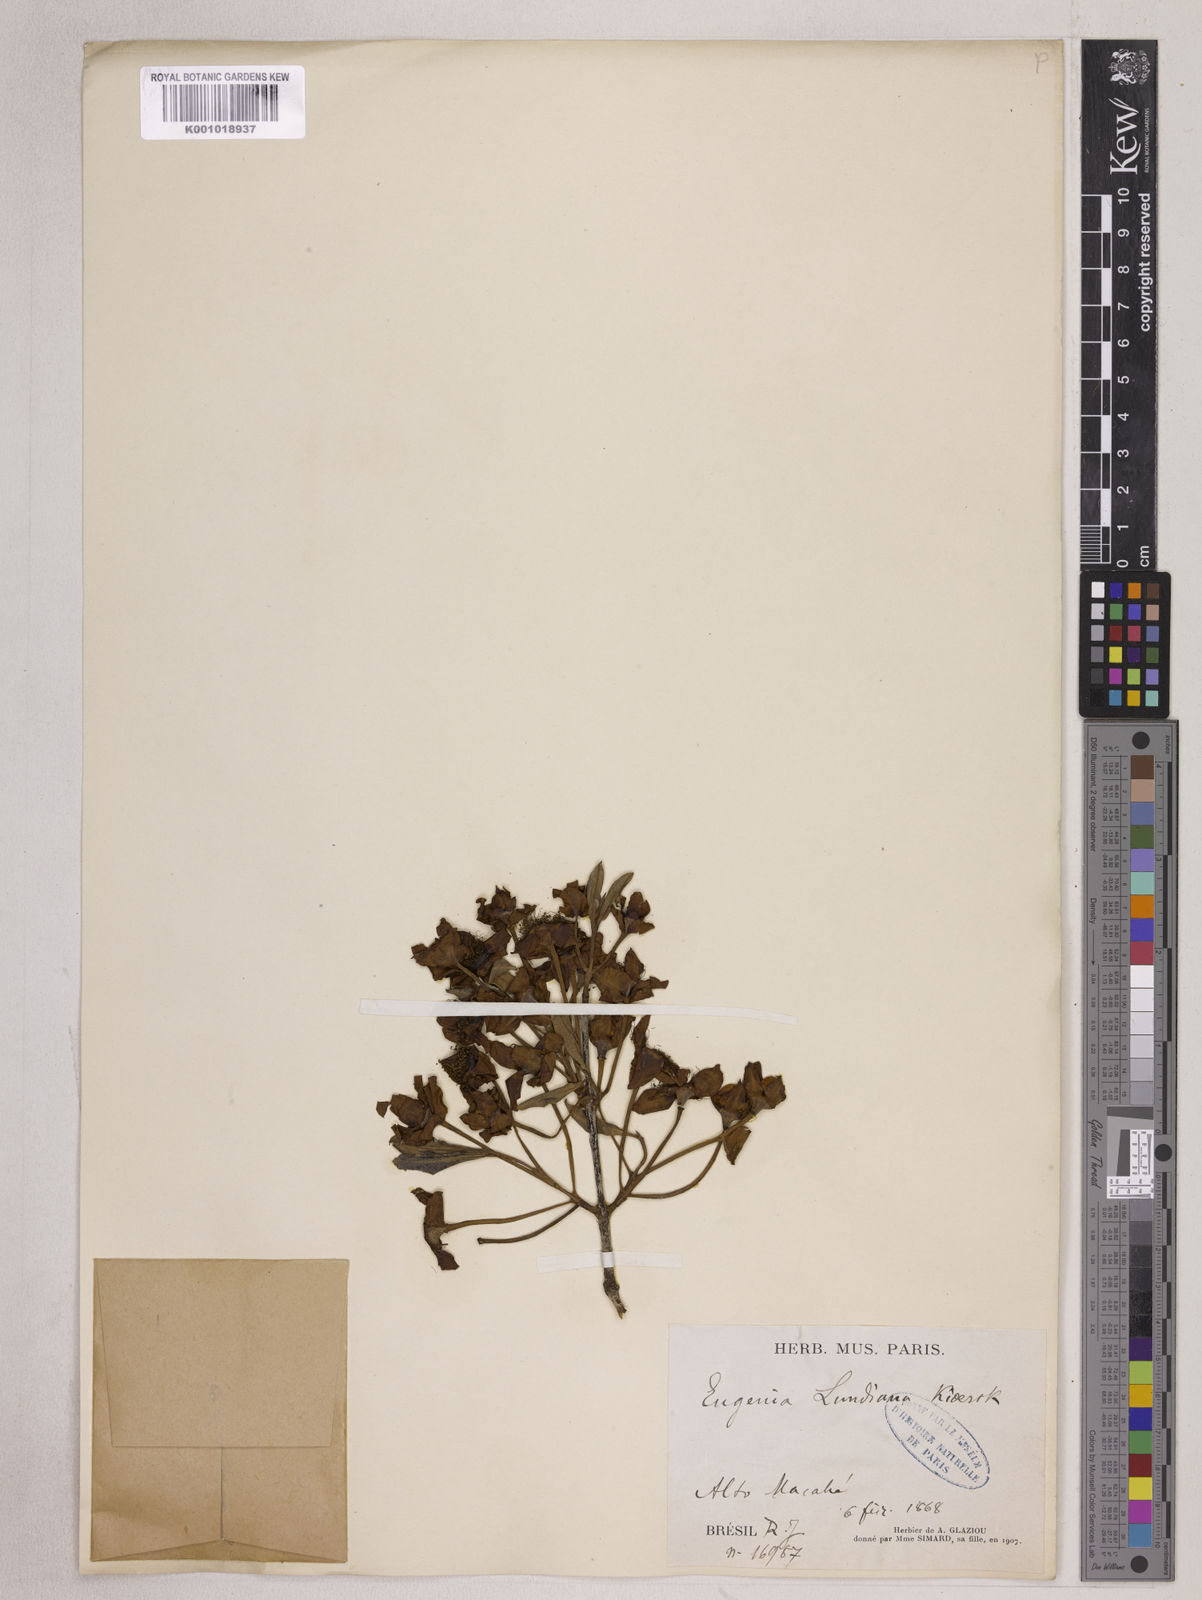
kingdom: Plantae
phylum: Tracheophyta
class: Magnoliopsida
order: Myrtales
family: Myrtaceae
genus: Eugenia
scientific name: Eugenia calycina
